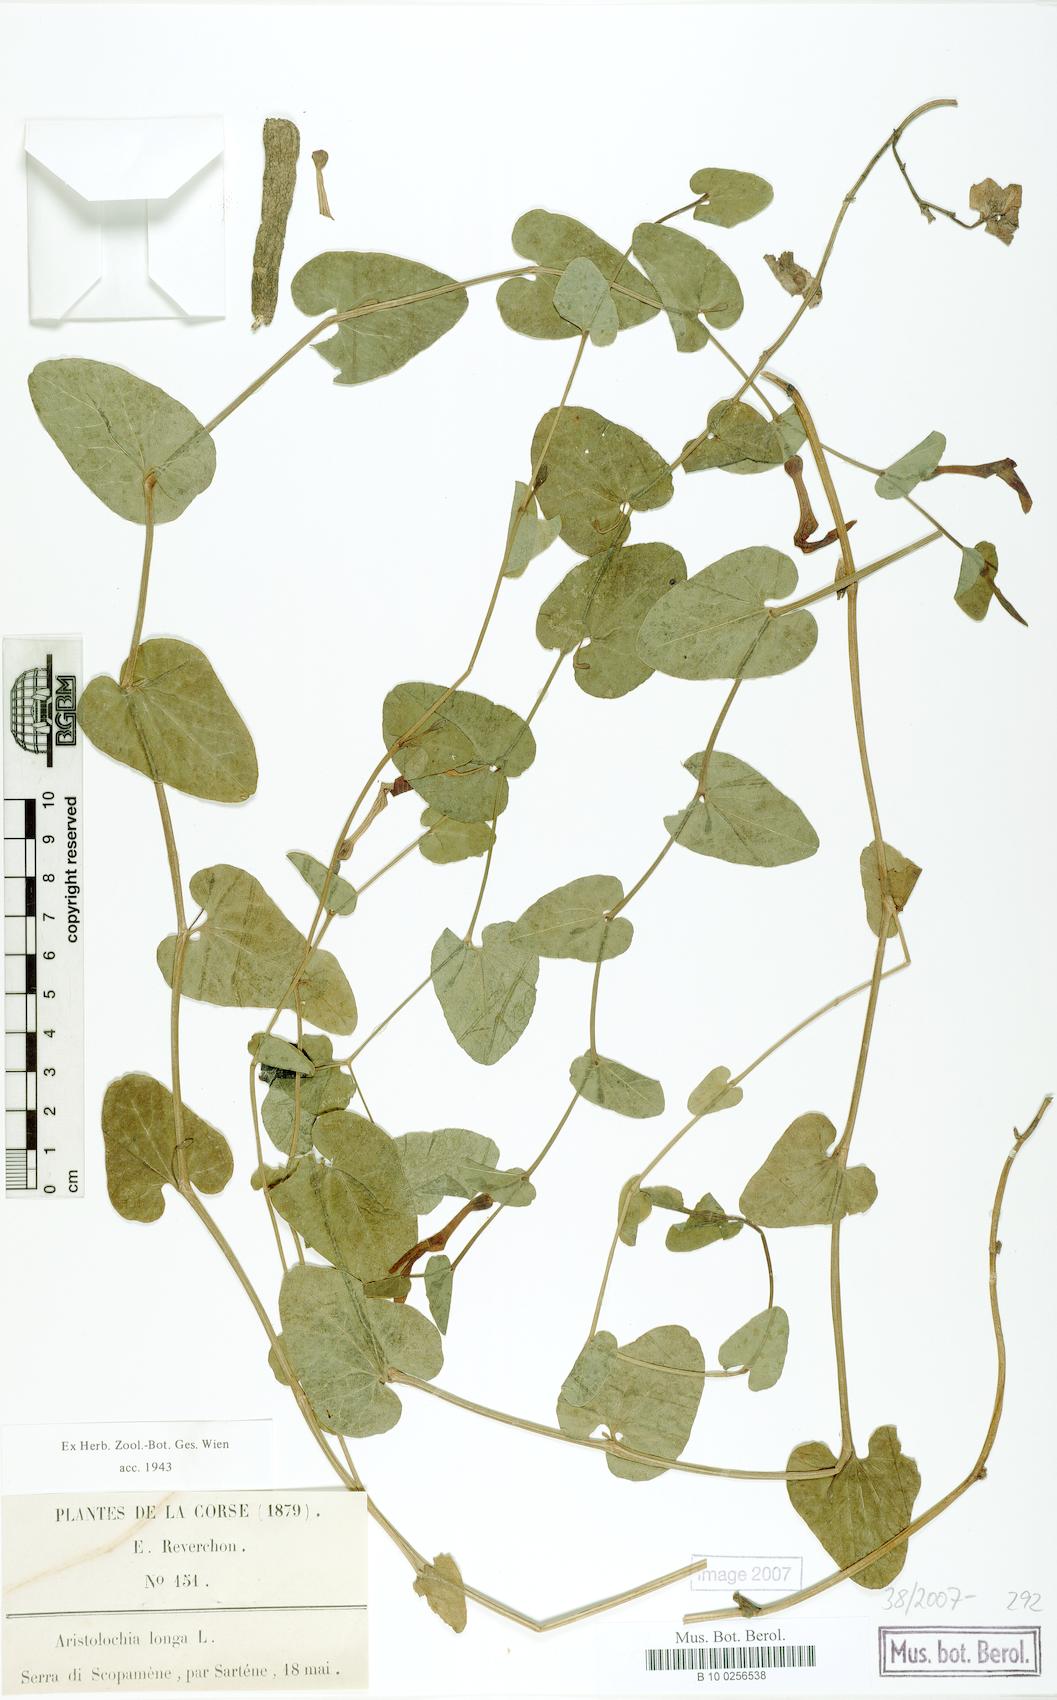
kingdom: Plantae
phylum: Tracheophyta
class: Magnoliopsida
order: Piperales
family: Aristolochiaceae
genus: Aristolochia
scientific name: Aristolochia fontanesii
